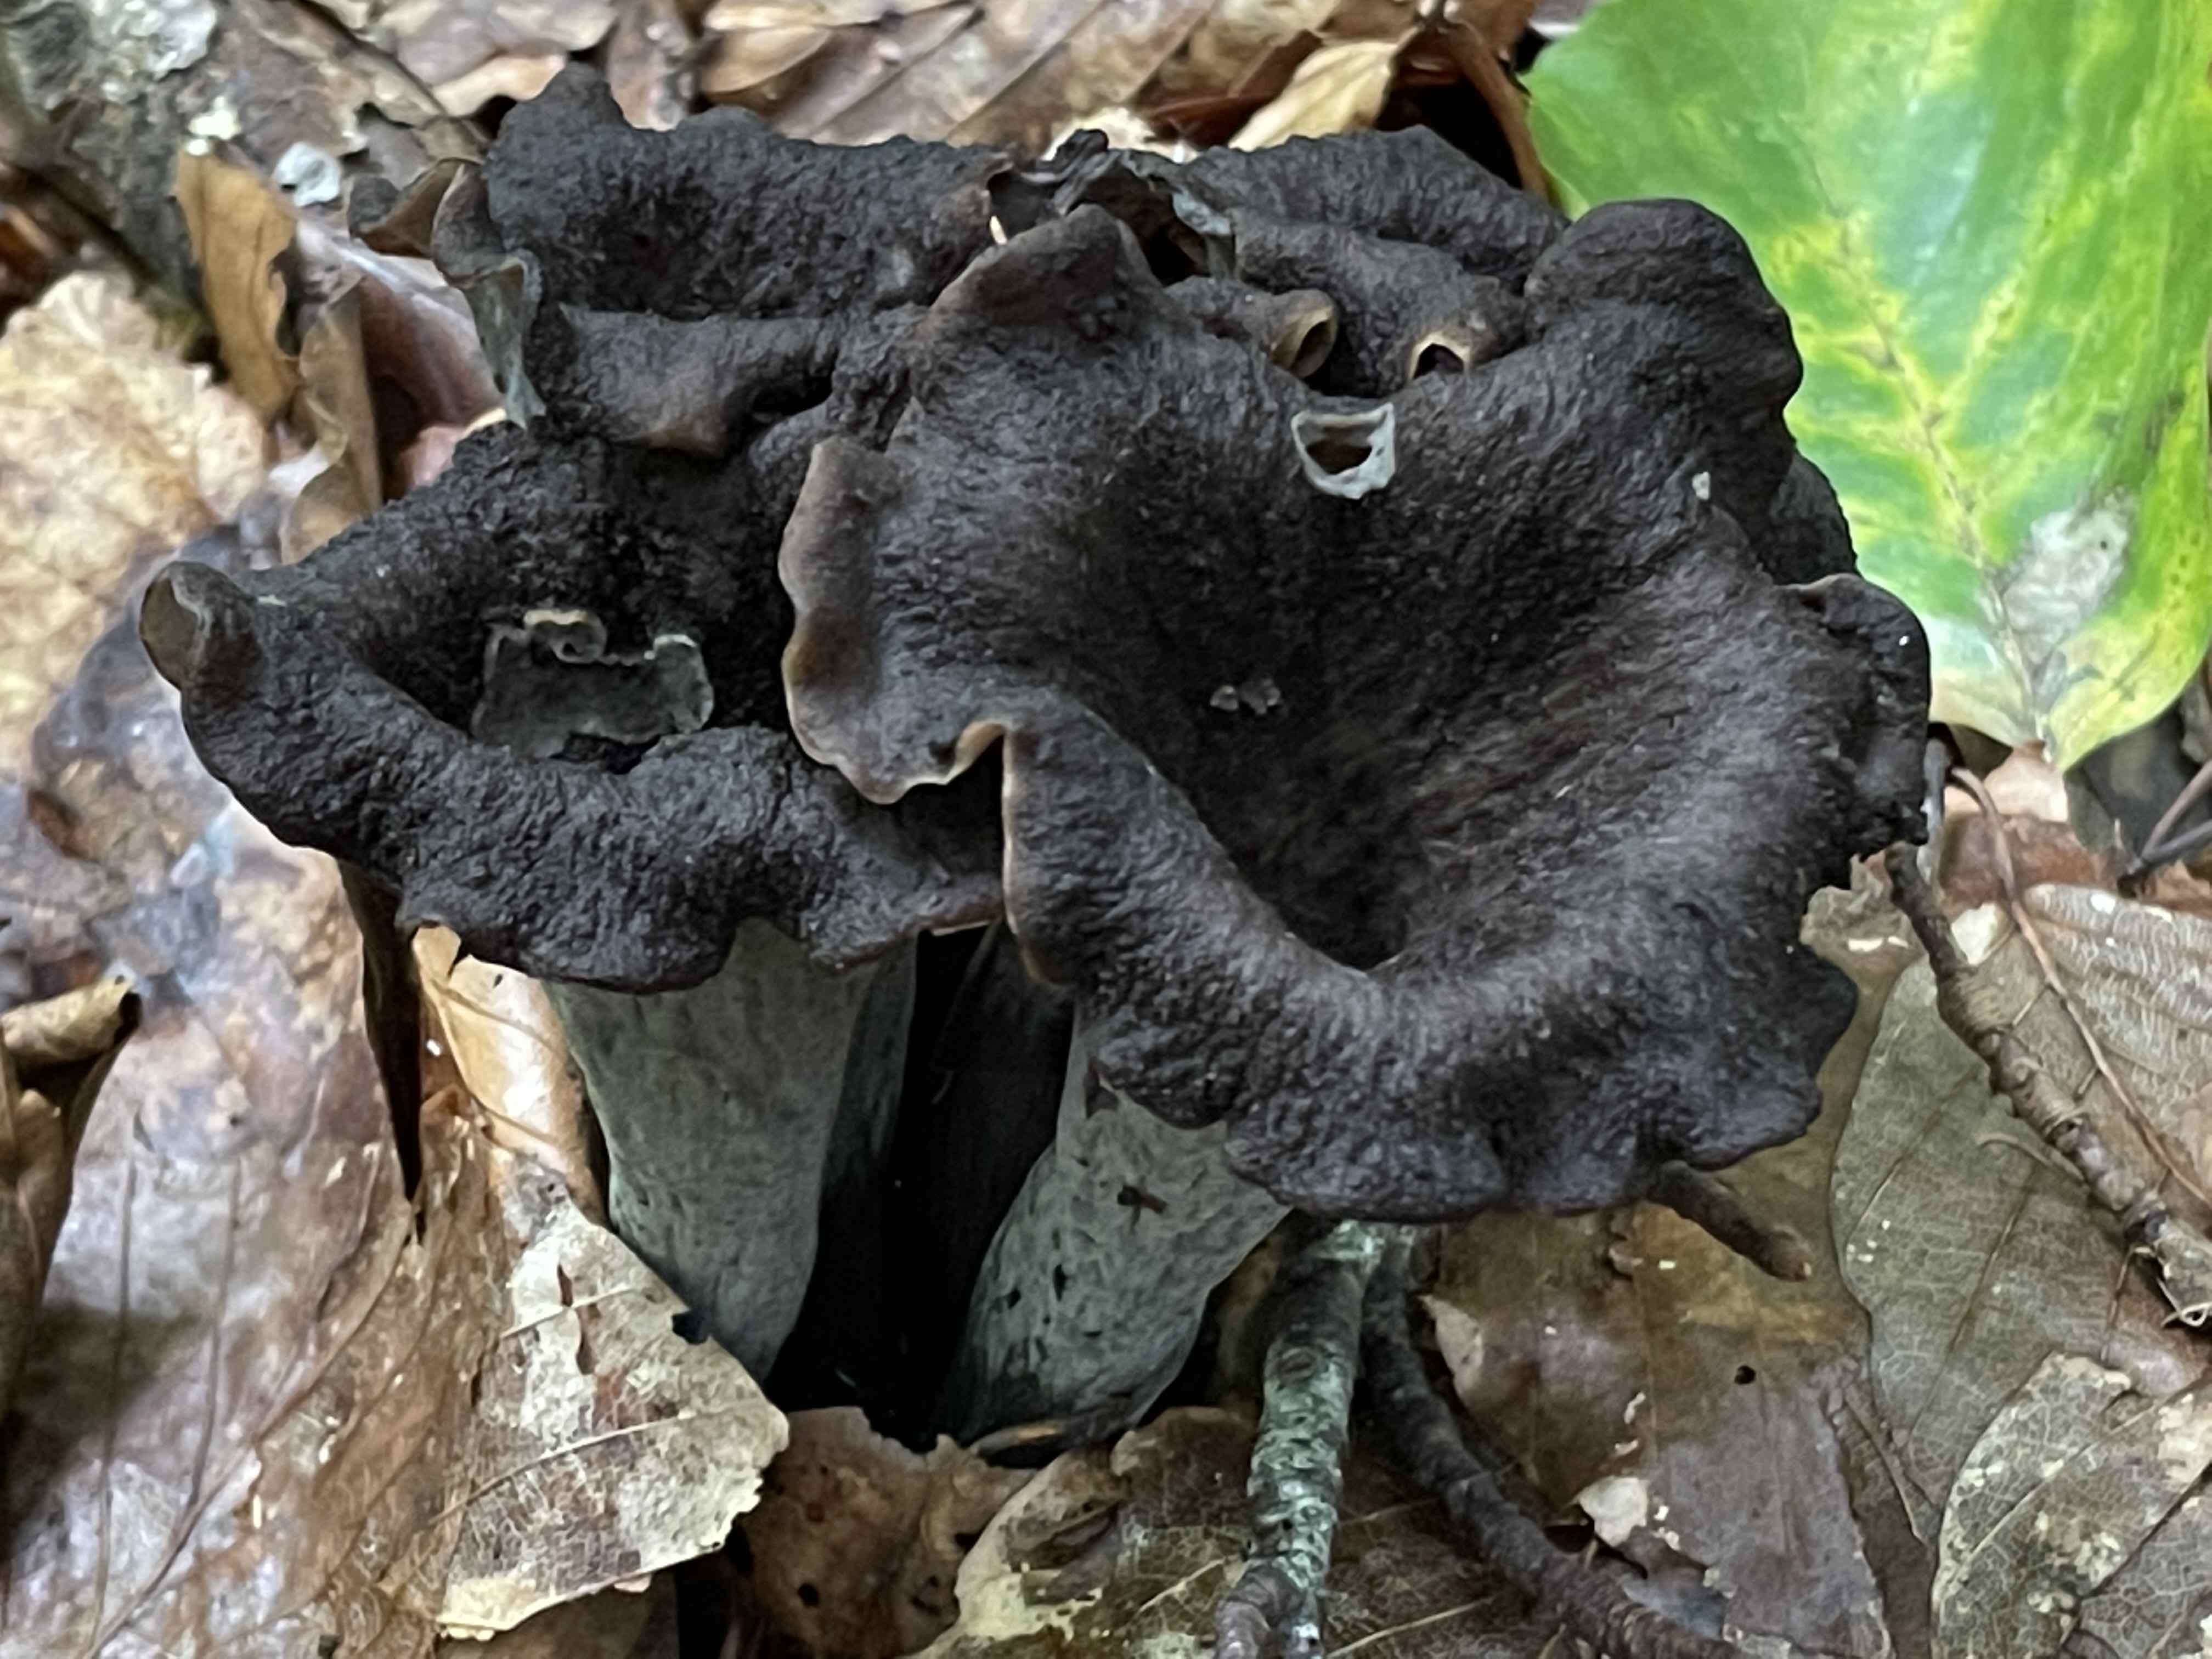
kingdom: Fungi
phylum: Basidiomycota
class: Agaricomycetes
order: Cantharellales
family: Hydnaceae
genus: Craterellus
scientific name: Craterellus cornucopioides
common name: trompetsvamp
